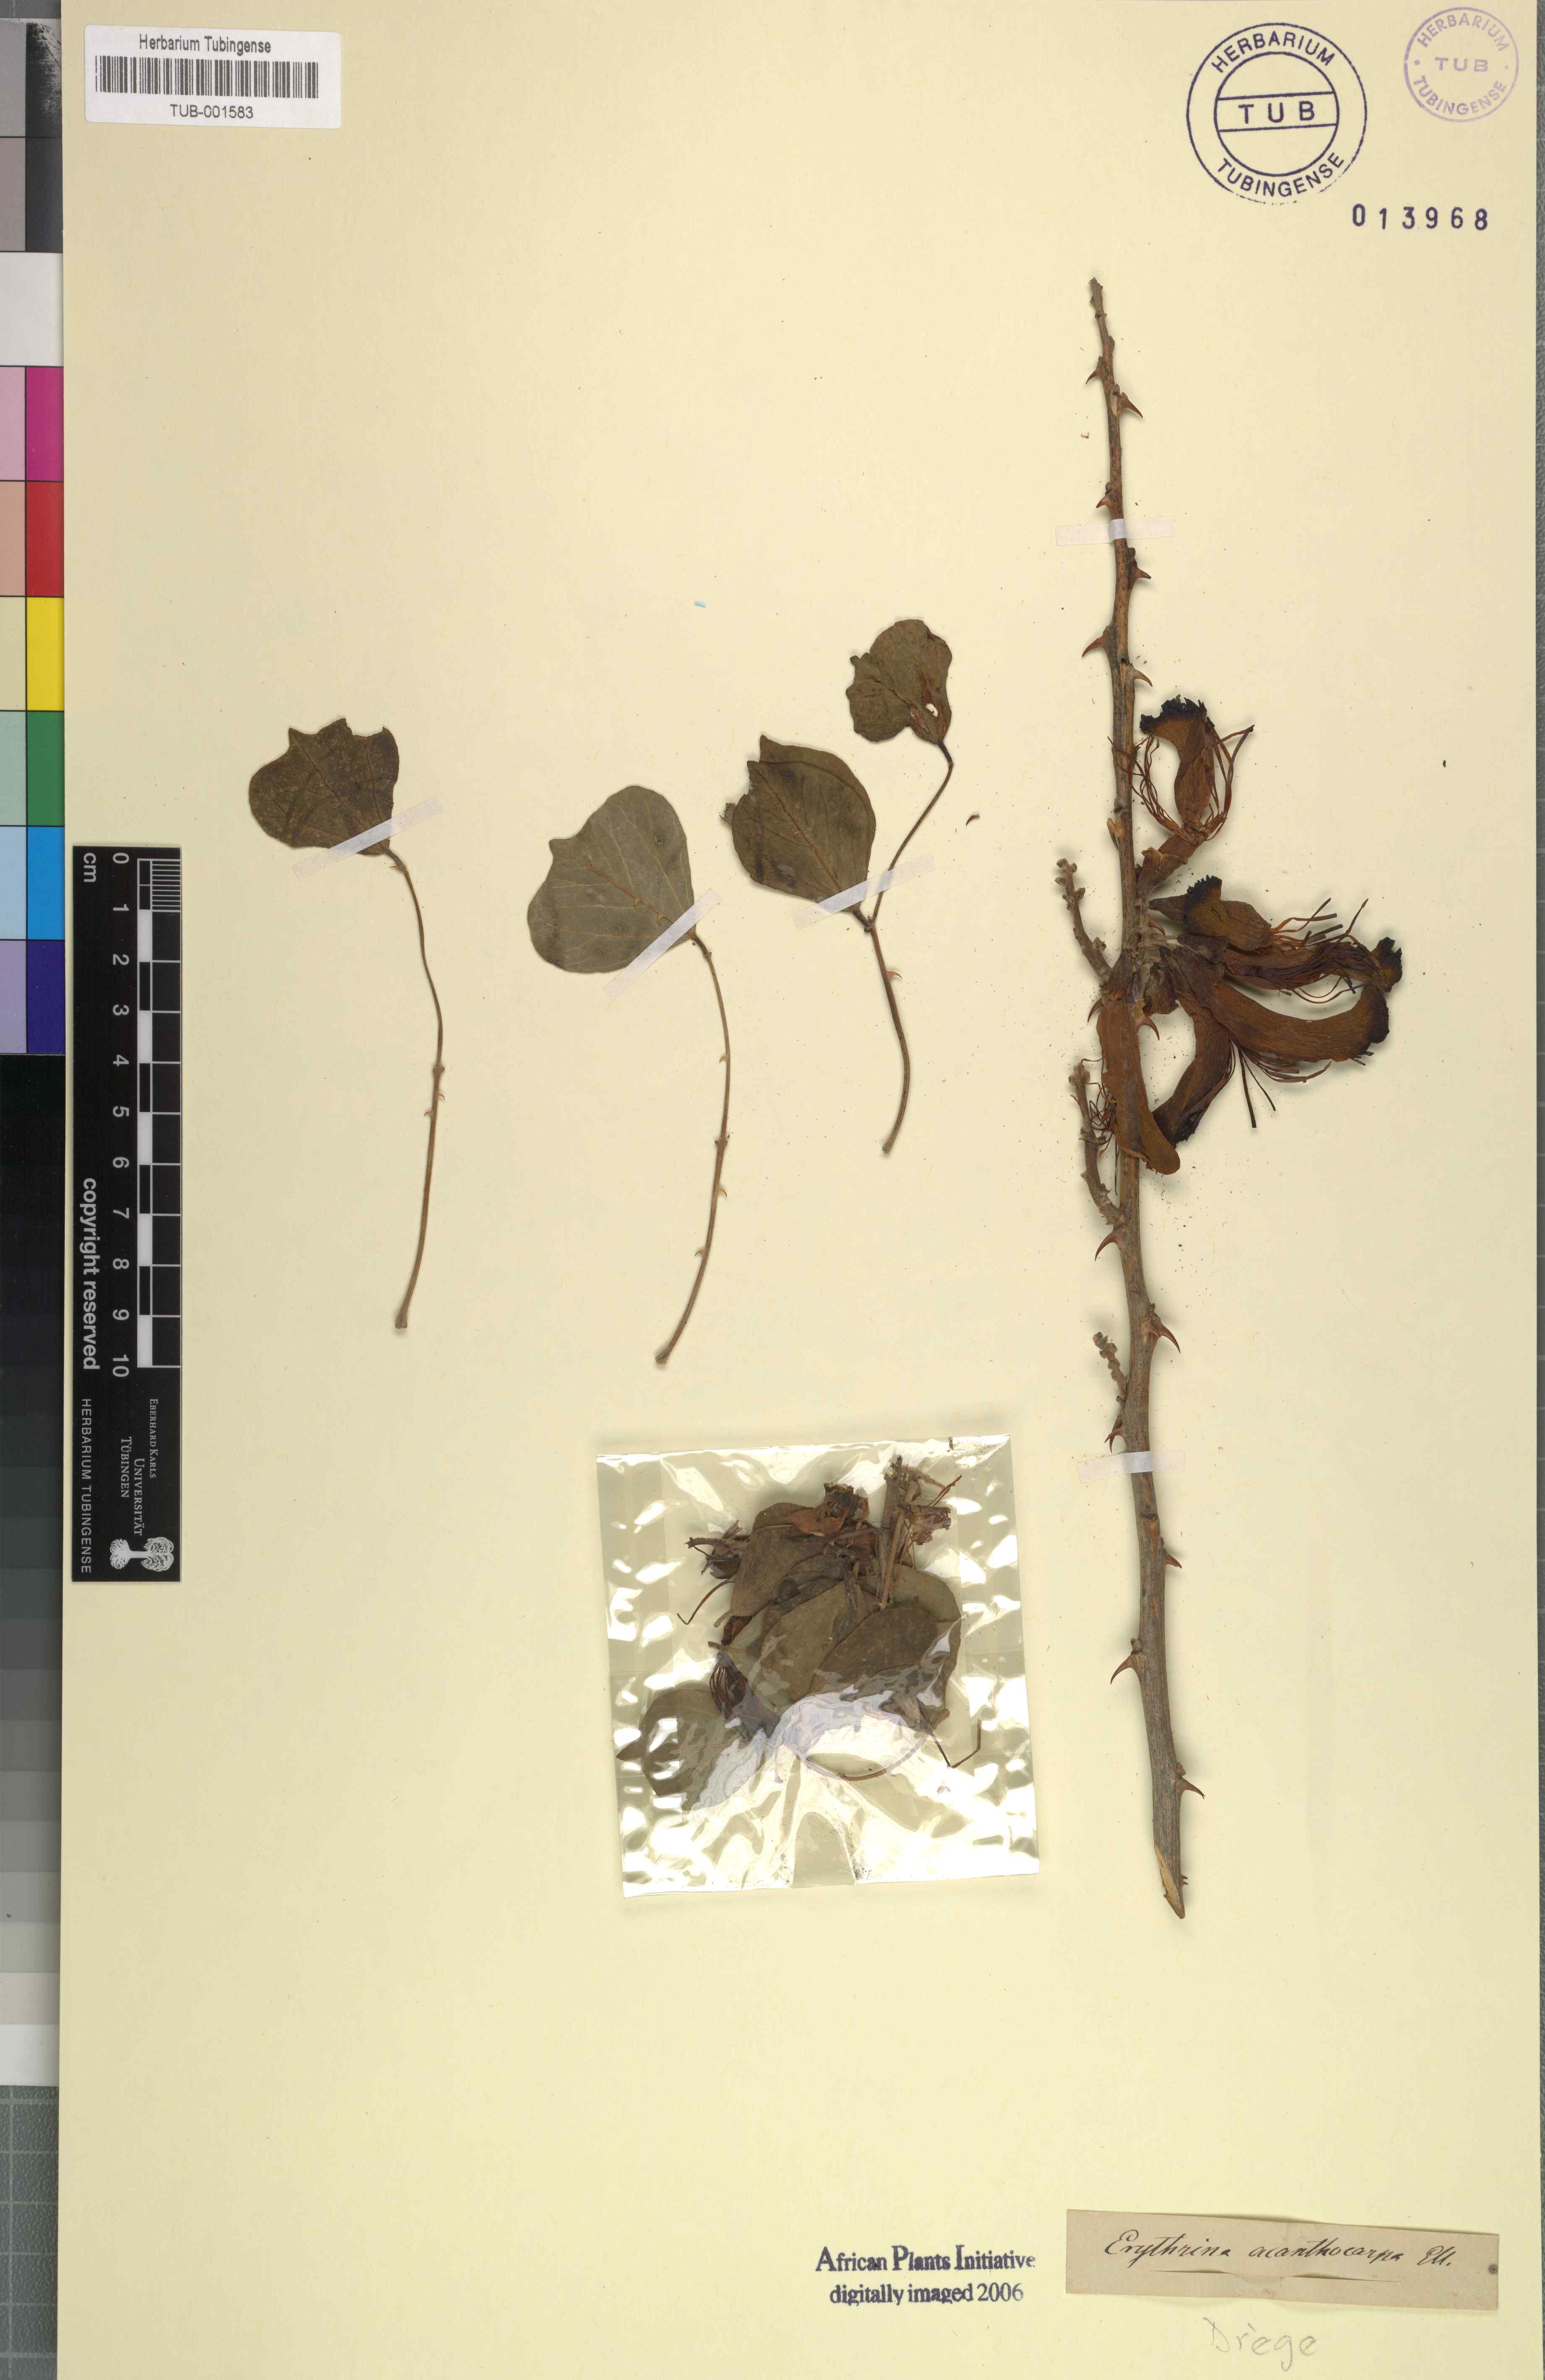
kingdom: Plantae
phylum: Tracheophyta
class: Magnoliopsida
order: Fabales
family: Fabaceae
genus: Erythrina
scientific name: Erythrina acanthocarpa
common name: Thorny coraltree
